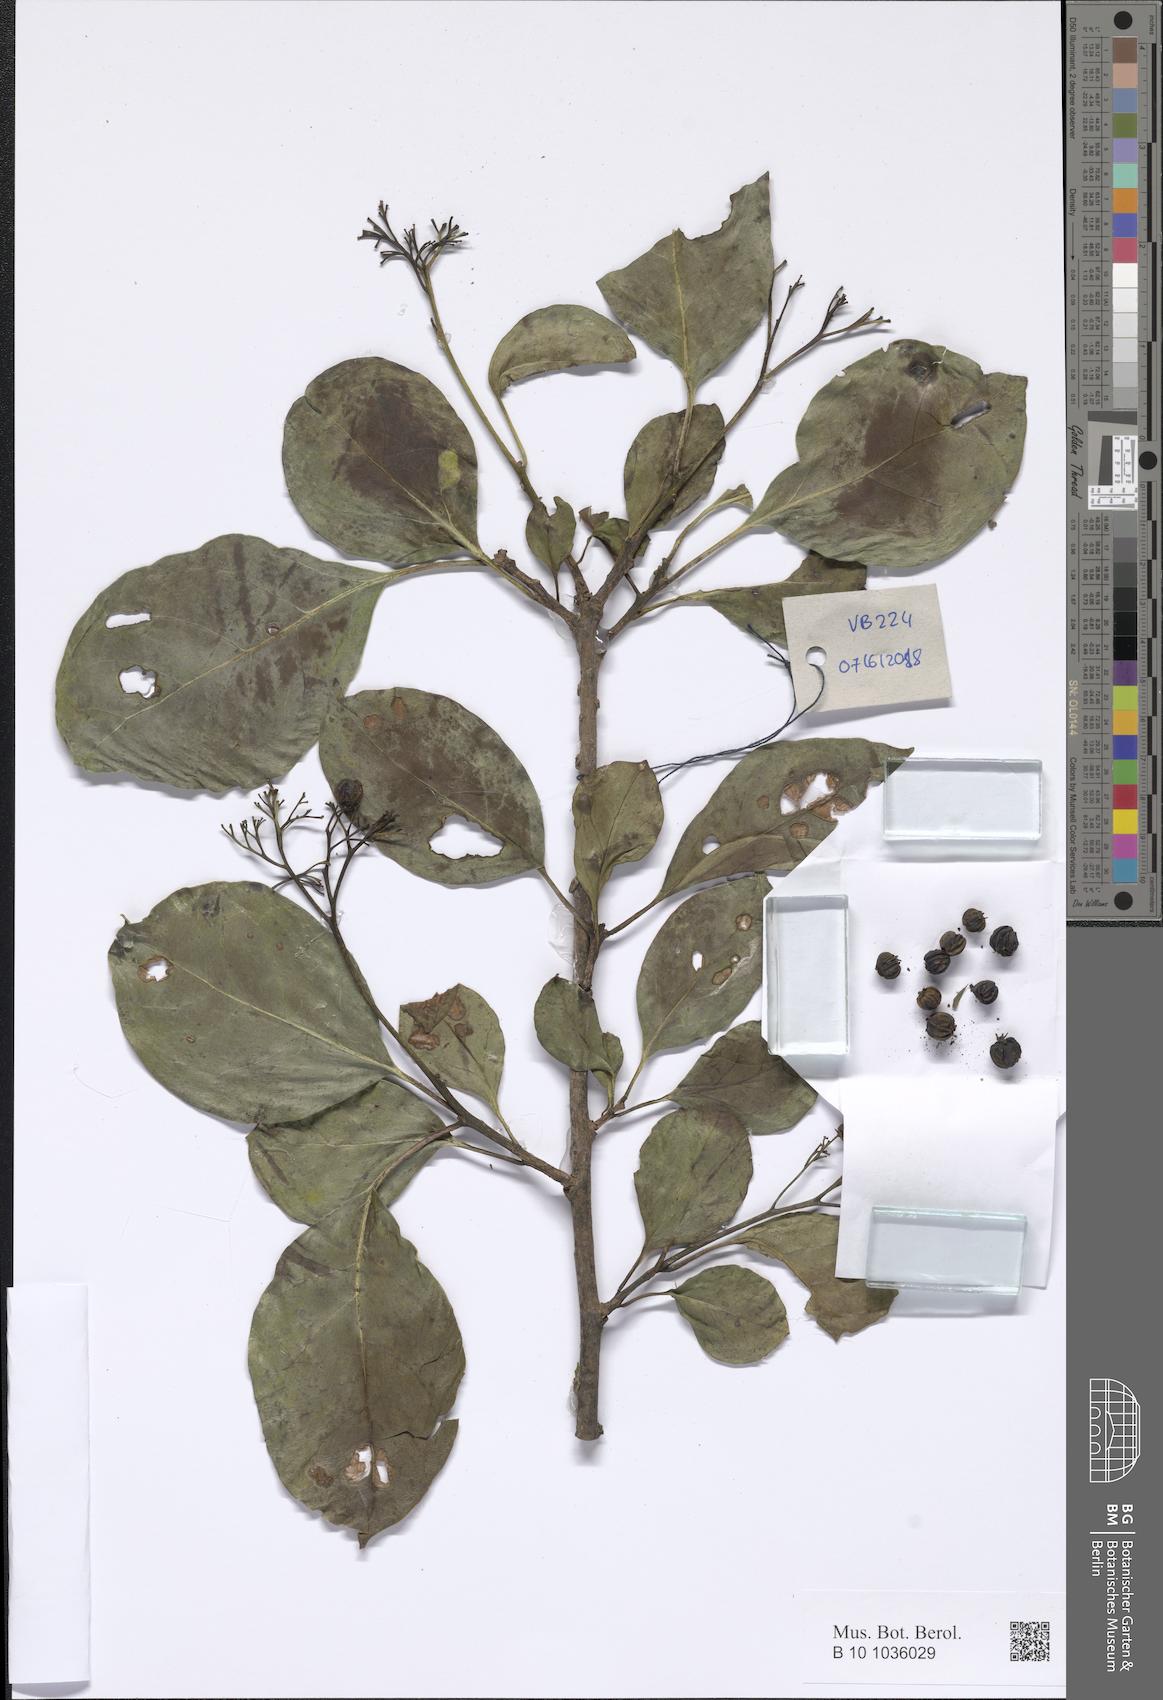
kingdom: Plantae
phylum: Tracheophyta
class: Magnoliopsida
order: Boraginales
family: Cordiaceae
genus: Cordia
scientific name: Cordia
